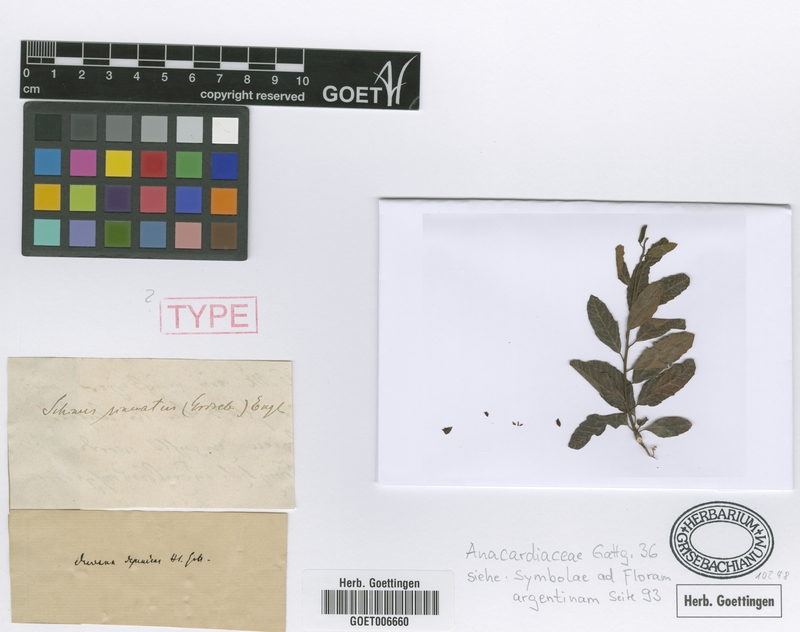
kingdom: Plantae
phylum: Tracheophyta
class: Magnoliopsida
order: Sapindales
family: Anacardiaceae
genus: Schinus
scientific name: Schinus fasciculata
